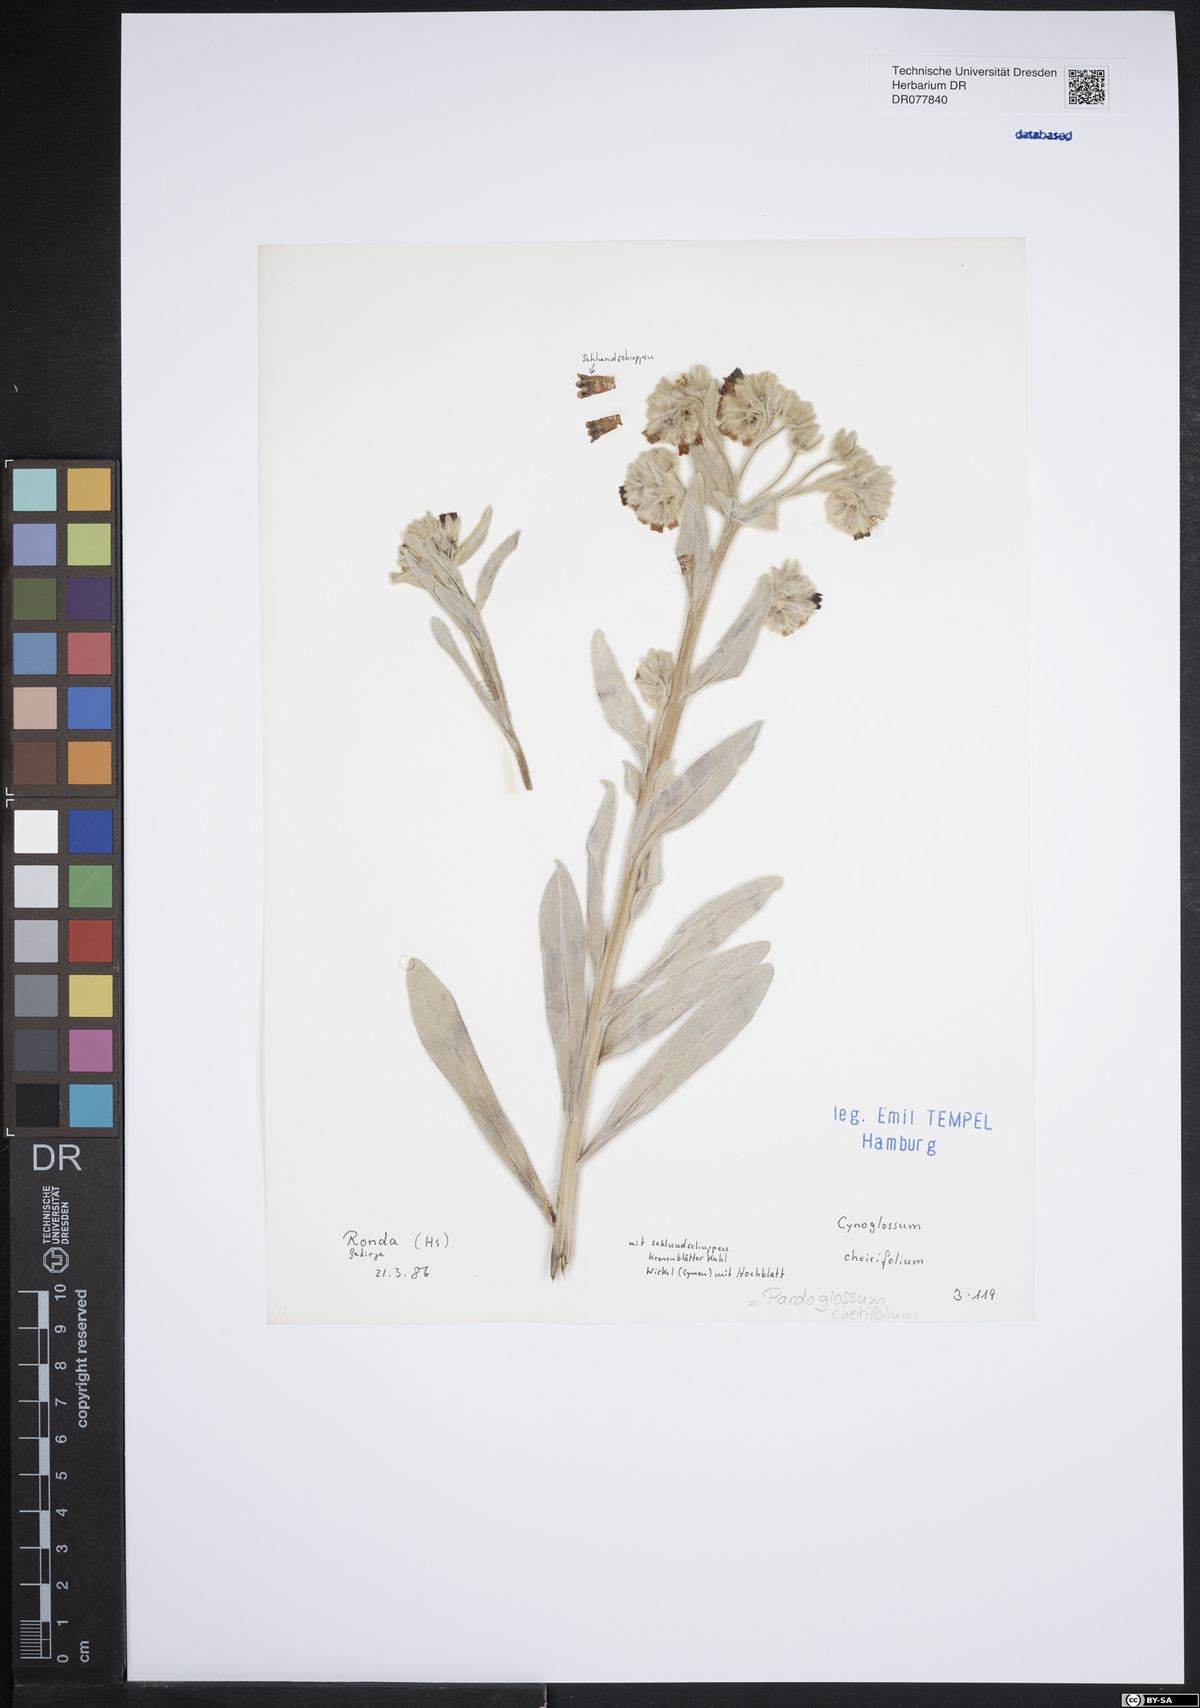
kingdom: Plantae
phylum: Tracheophyta
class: Magnoliopsida
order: Boraginales
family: Boraginaceae
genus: Pardoglossum
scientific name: Pardoglossum cheirifolium
